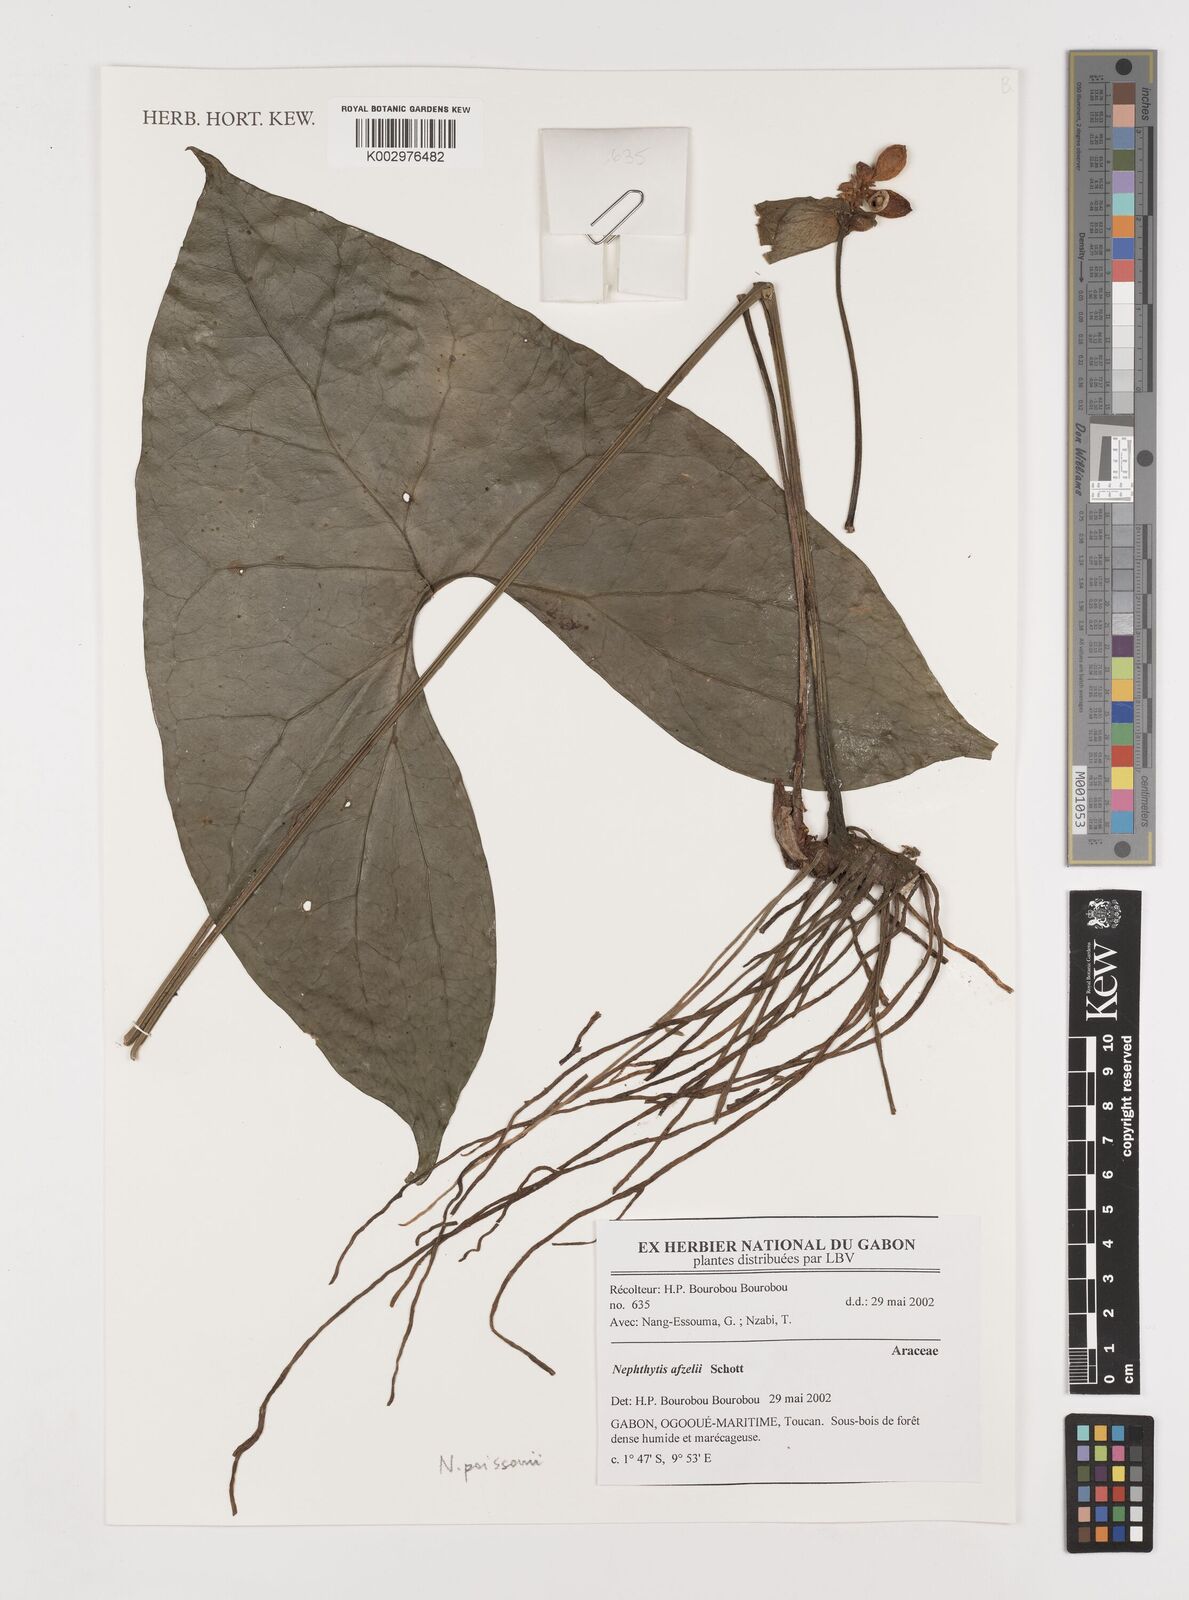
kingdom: Plantae
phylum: Tracheophyta
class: Liliopsida
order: Alismatales
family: Araceae
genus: Nephthytis
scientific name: Nephthytis
